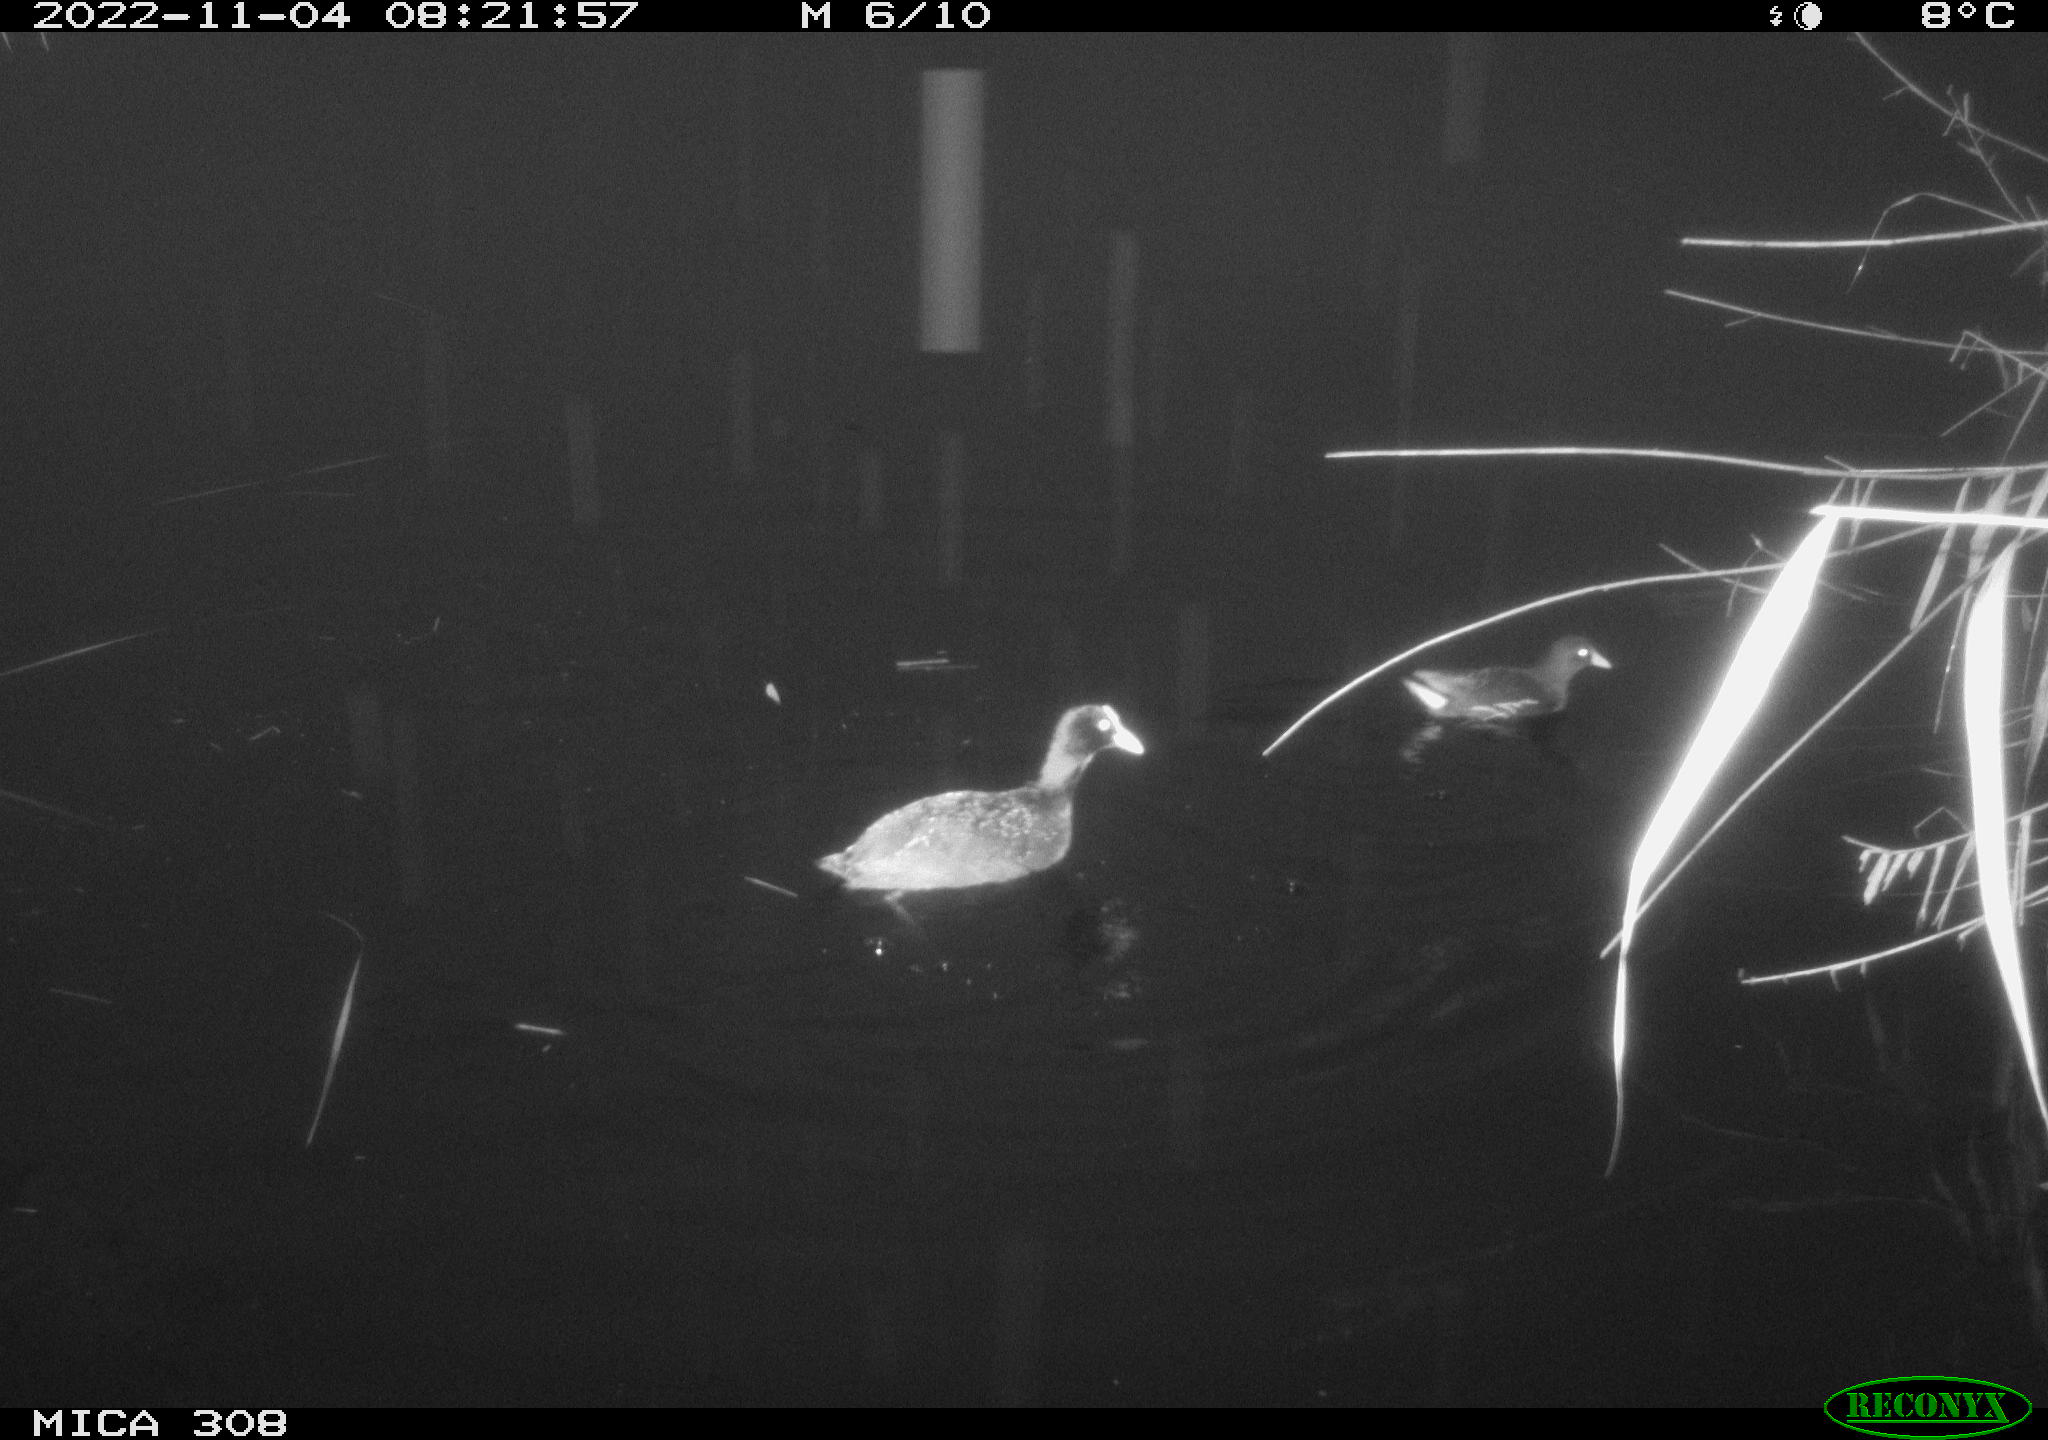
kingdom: Animalia
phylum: Chordata
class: Aves
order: Gruiformes
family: Rallidae
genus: Fulica
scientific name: Fulica atra
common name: Eurasian coot
